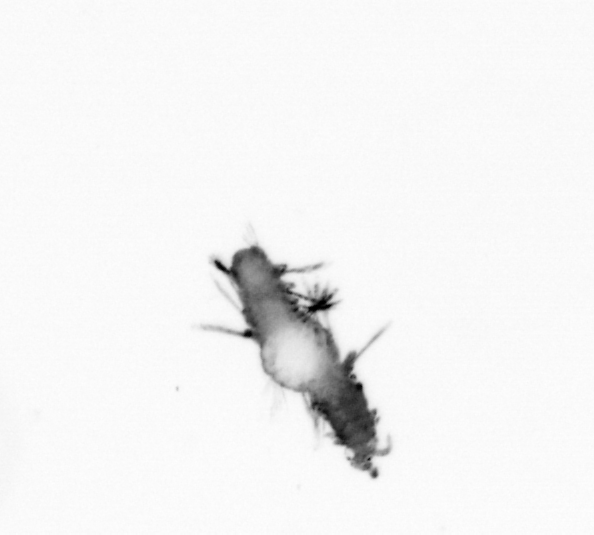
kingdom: Animalia
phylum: Annelida
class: Polychaeta
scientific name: Polychaeta
